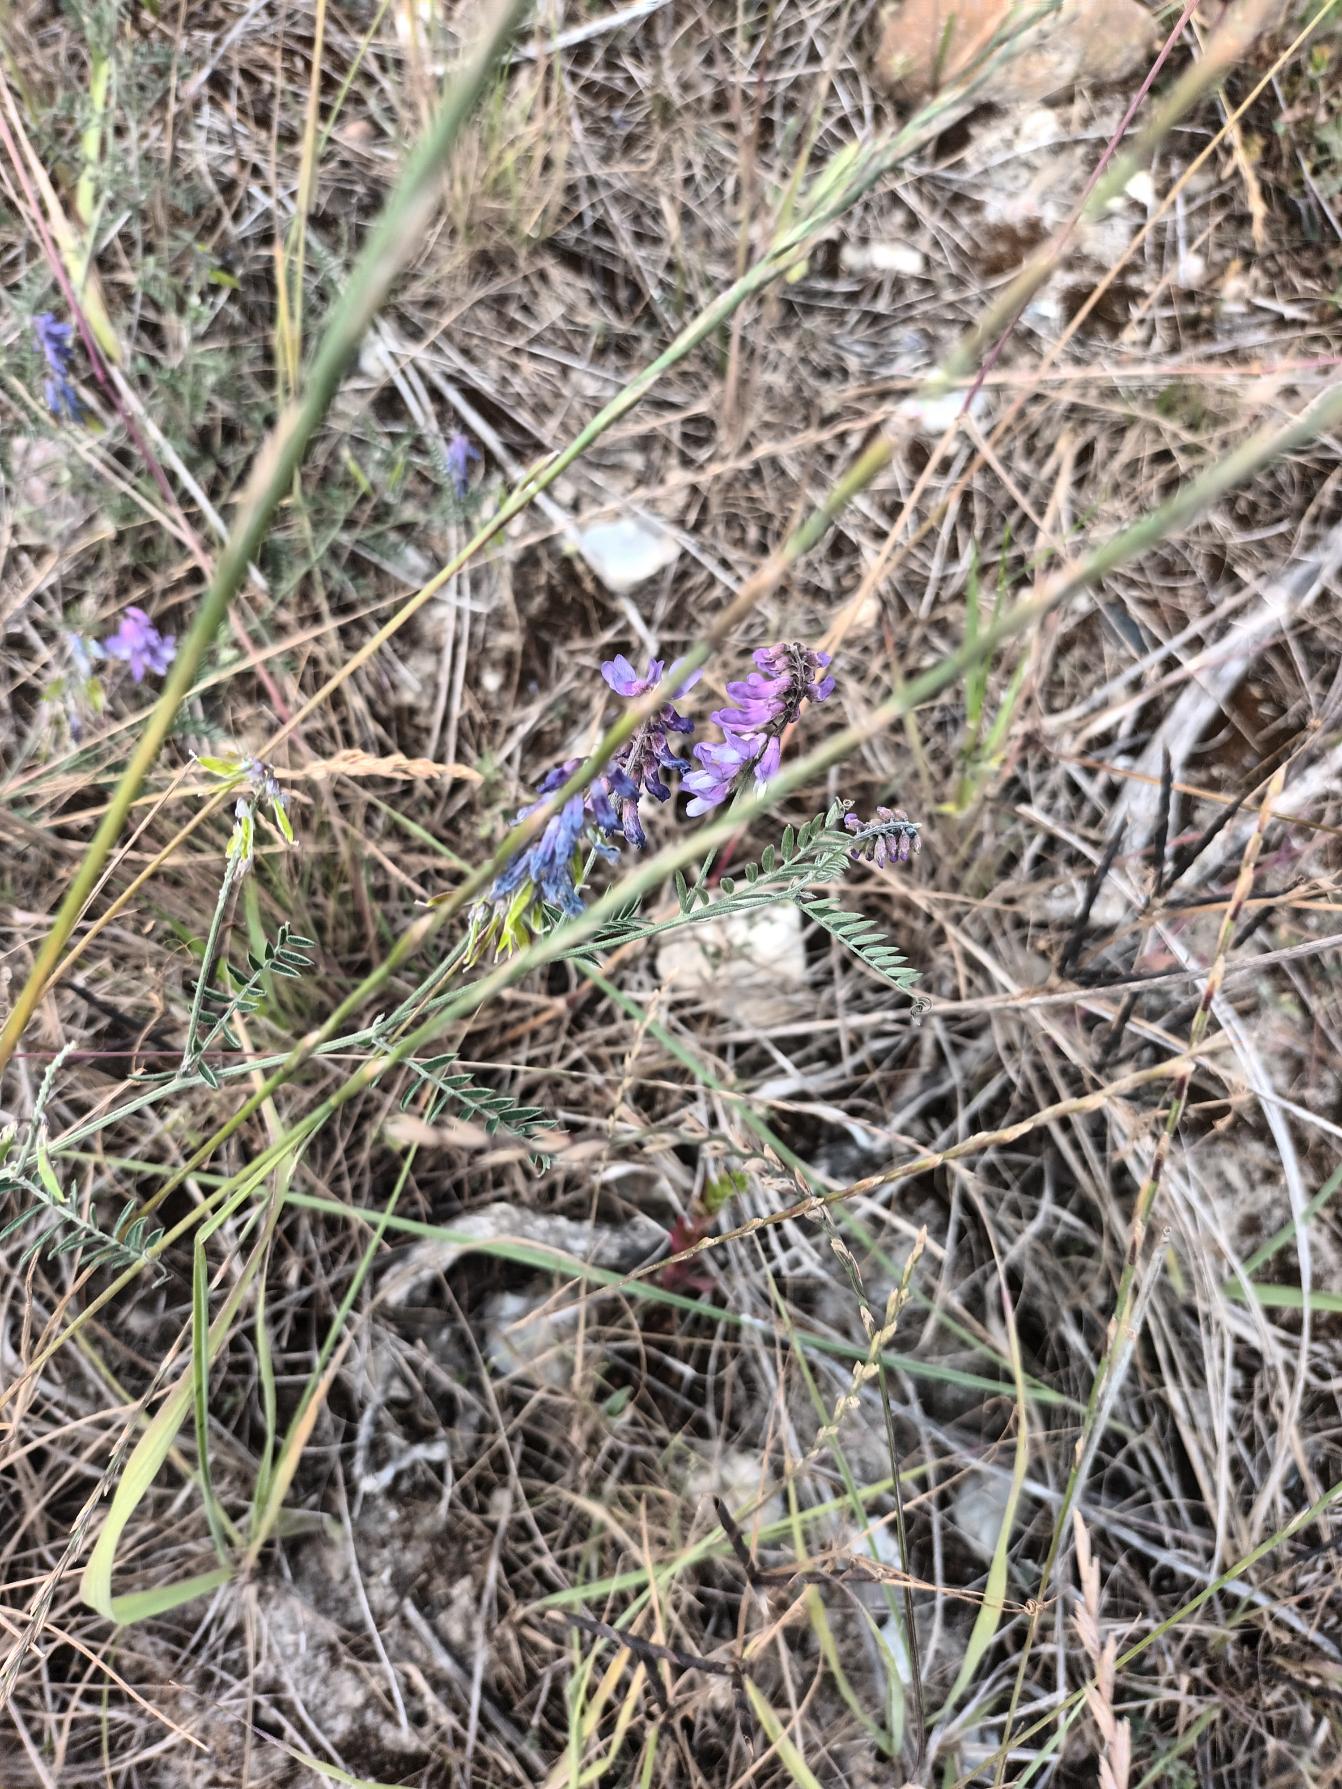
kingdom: Plantae
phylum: Tracheophyta
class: Magnoliopsida
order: Fabales
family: Fabaceae
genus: Vicia
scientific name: Vicia cracca
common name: Muse-vikke
